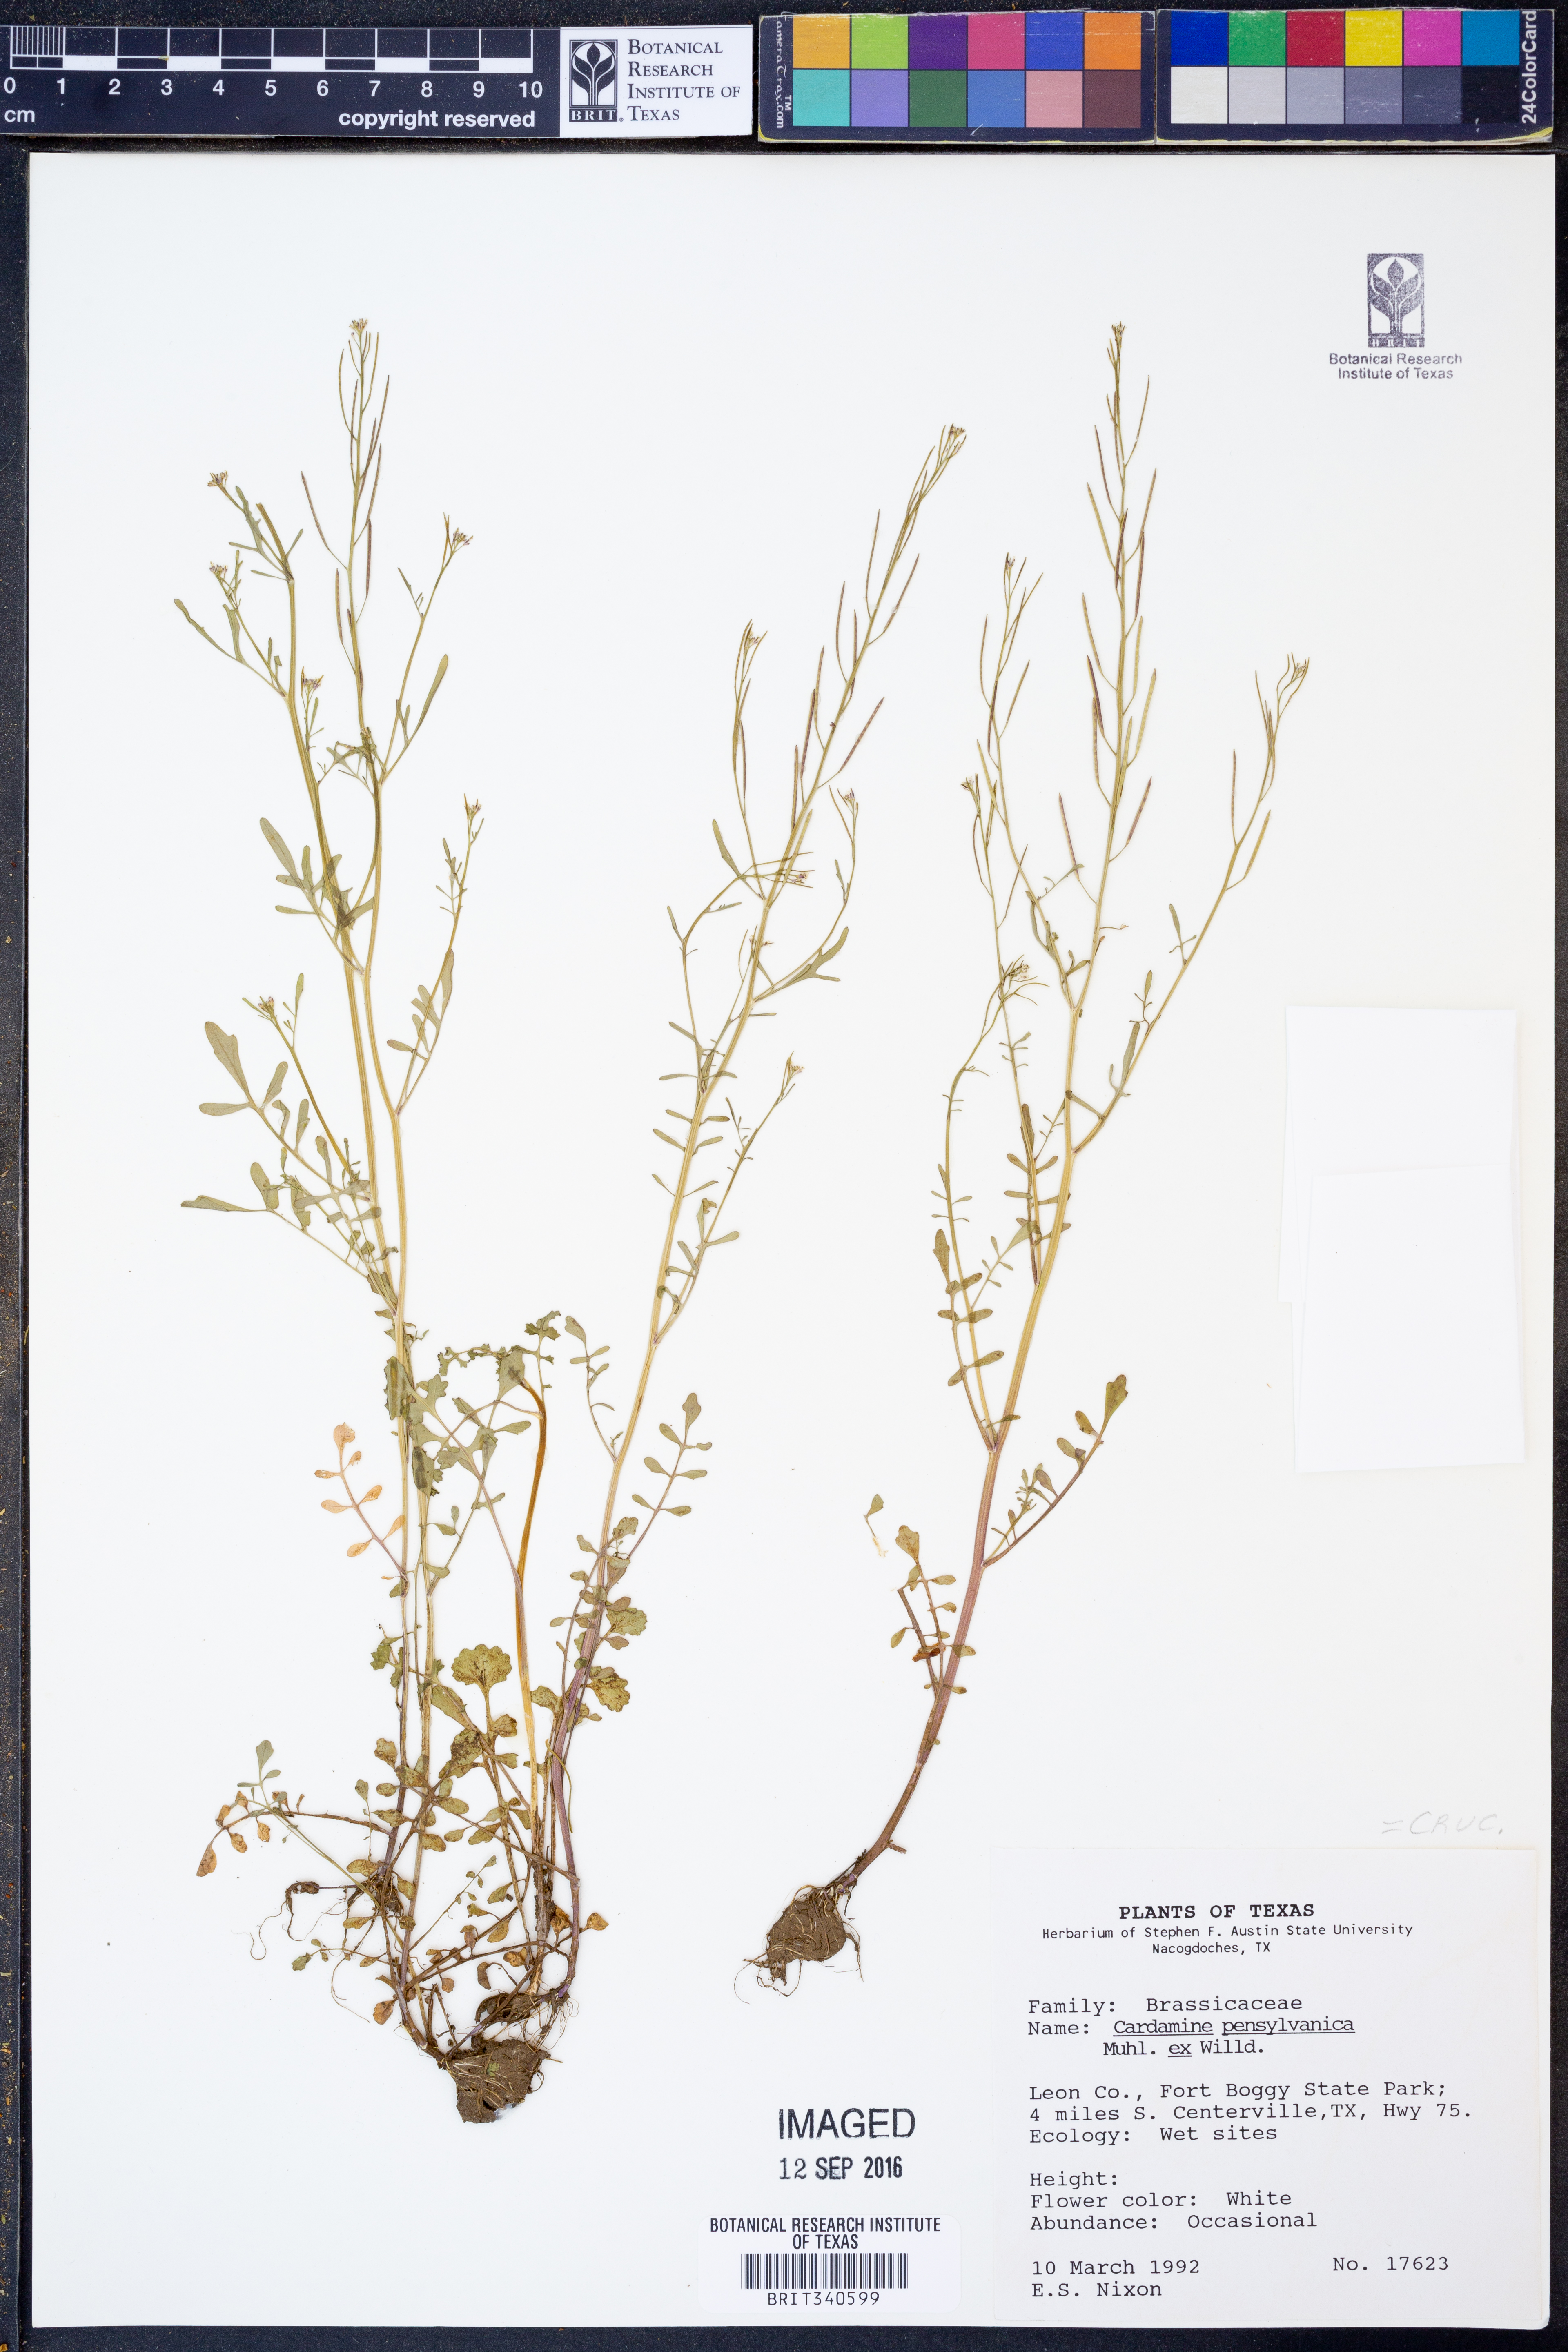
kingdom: Plantae
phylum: Tracheophyta
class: Magnoliopsida
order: Brassicales
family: Brassicaceae
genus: Cardamine
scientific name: Cardamine pensylvanica
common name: Pennsylvania bittercress
